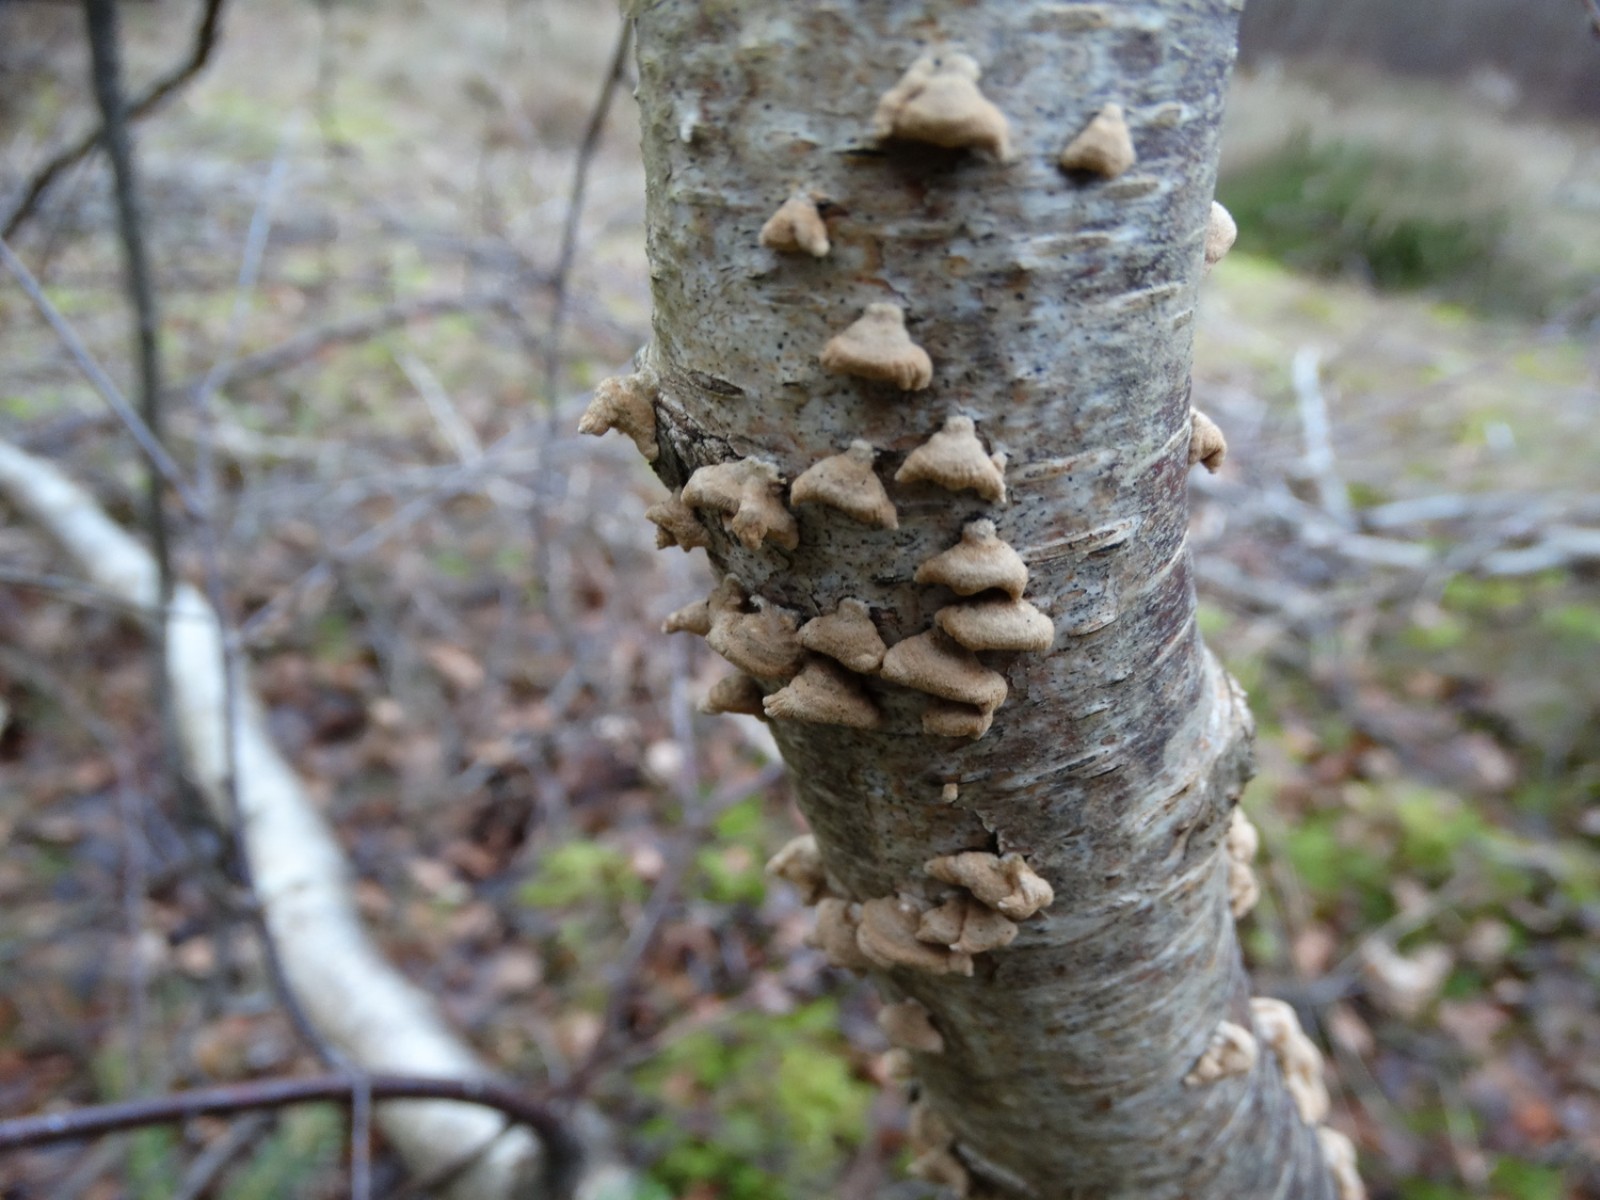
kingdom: Fungi
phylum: Basidiomycota
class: Agaricomycetes
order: Amylocorticiales
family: Amylocorticiaceae
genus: Plicaturopsis
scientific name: Plicaturopsis crispa
